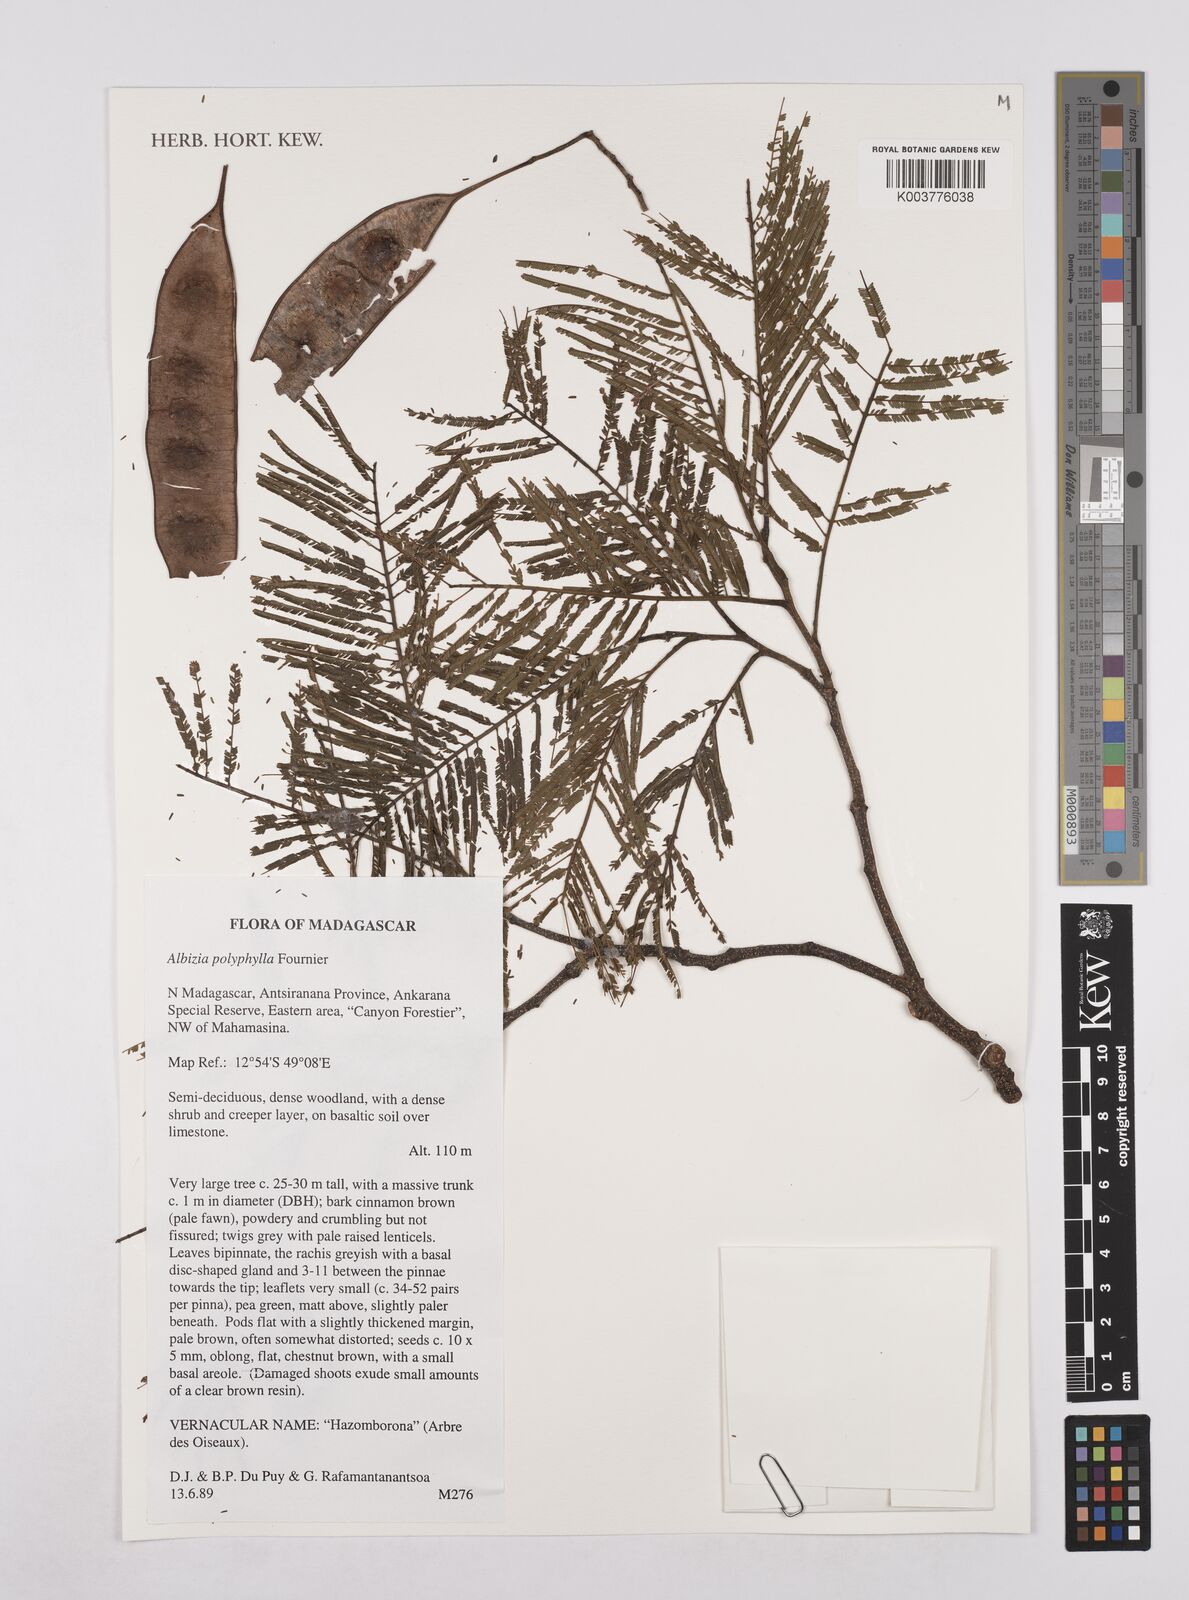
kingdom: Plantae
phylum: Tracheophyta
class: Magnoliopsida
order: Fabales
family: Fabaceae
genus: Albizia
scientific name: Albizia polyphylla
